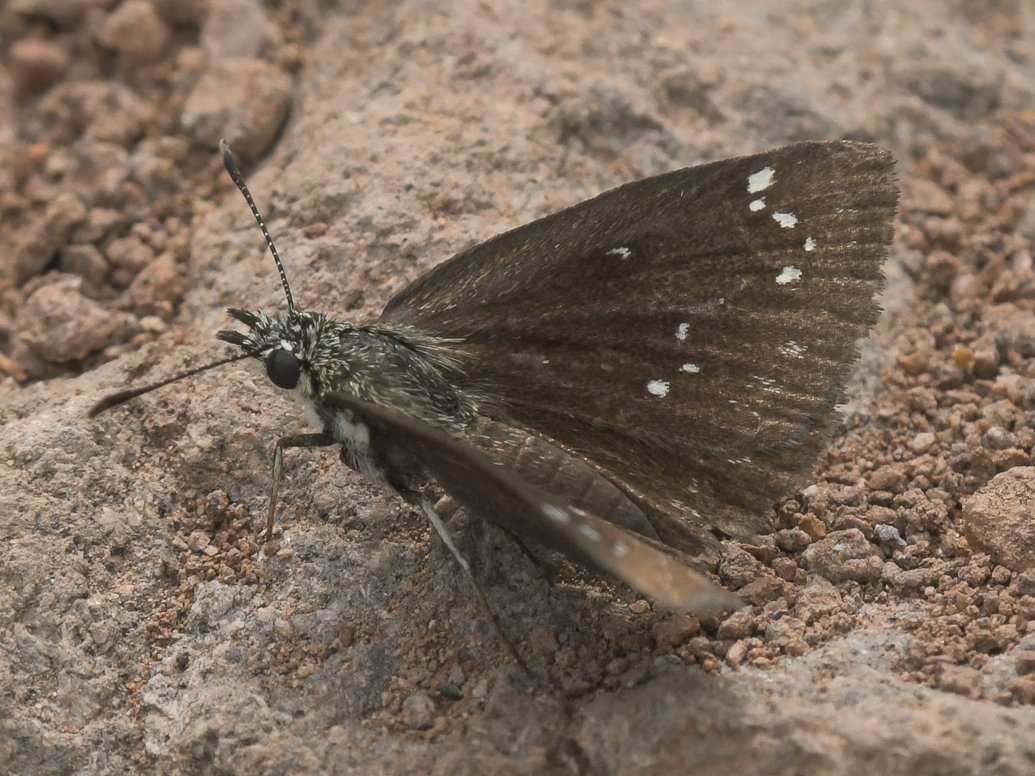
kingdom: Animalia
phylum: Arthropoda
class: Insecta
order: Lepidoptera
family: Hesperiidae
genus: Pholisora
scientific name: Pholisora catullus
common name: Common Sootywing
